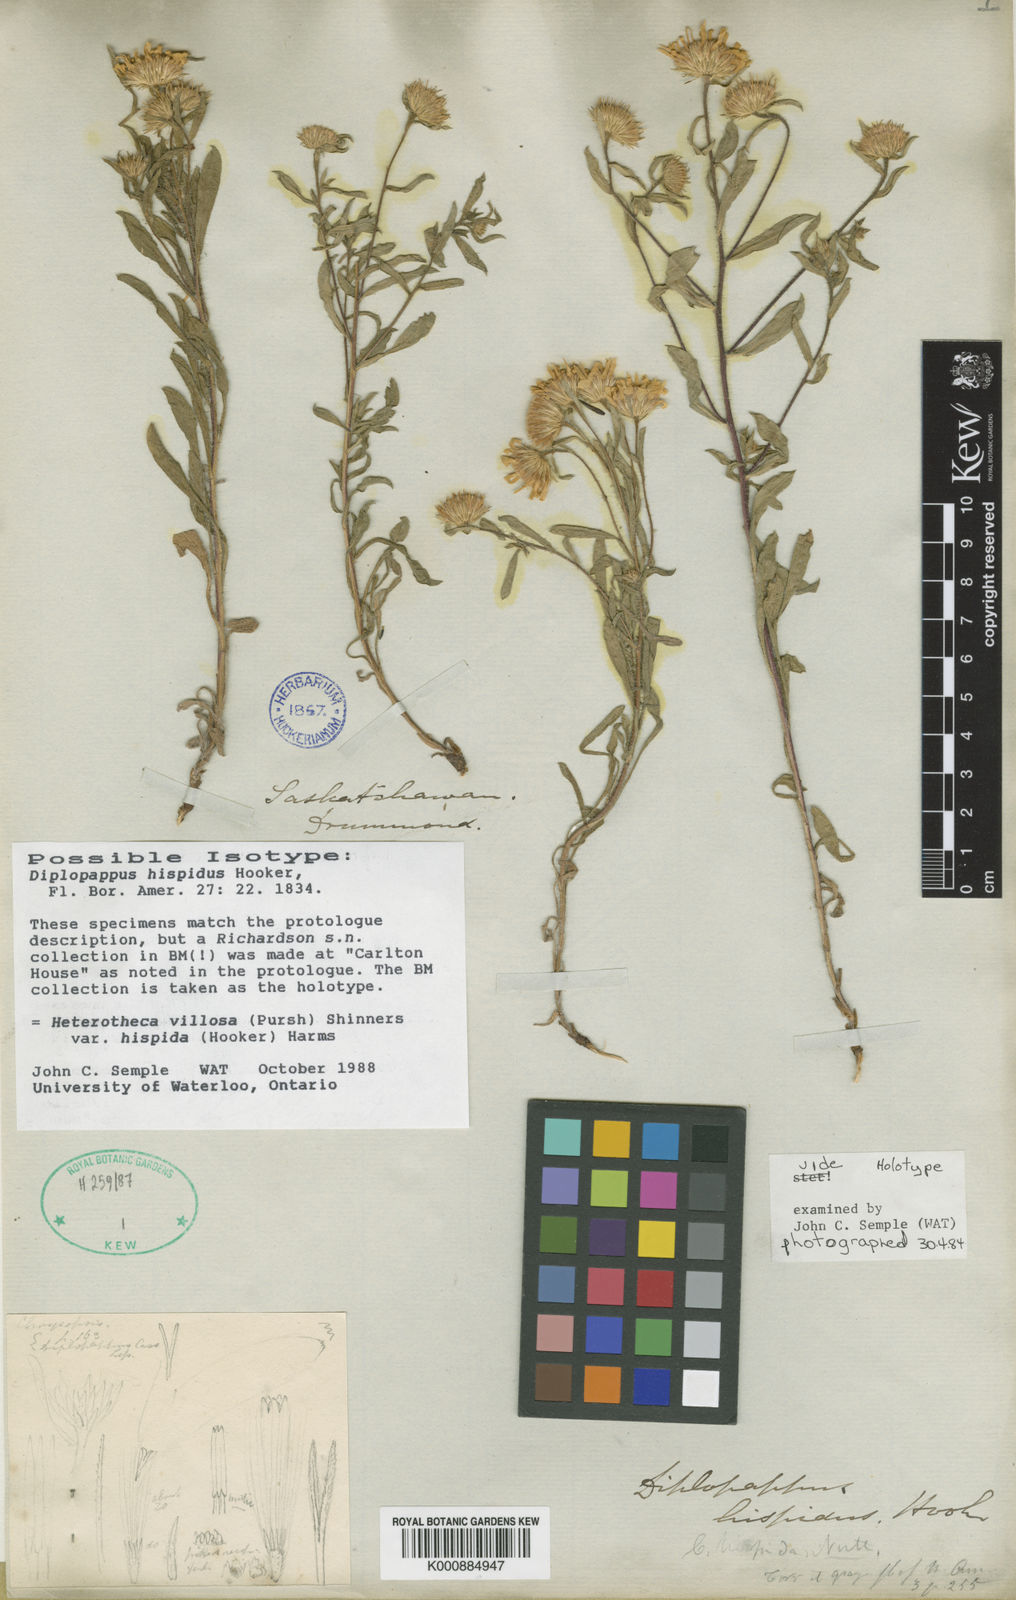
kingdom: Plantae
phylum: Tracheophyta
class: Magnoliopsida
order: Asterales
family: Asteraceae
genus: Heterotheca
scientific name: Heterotheca villosa
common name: Hairy false goldenaster
